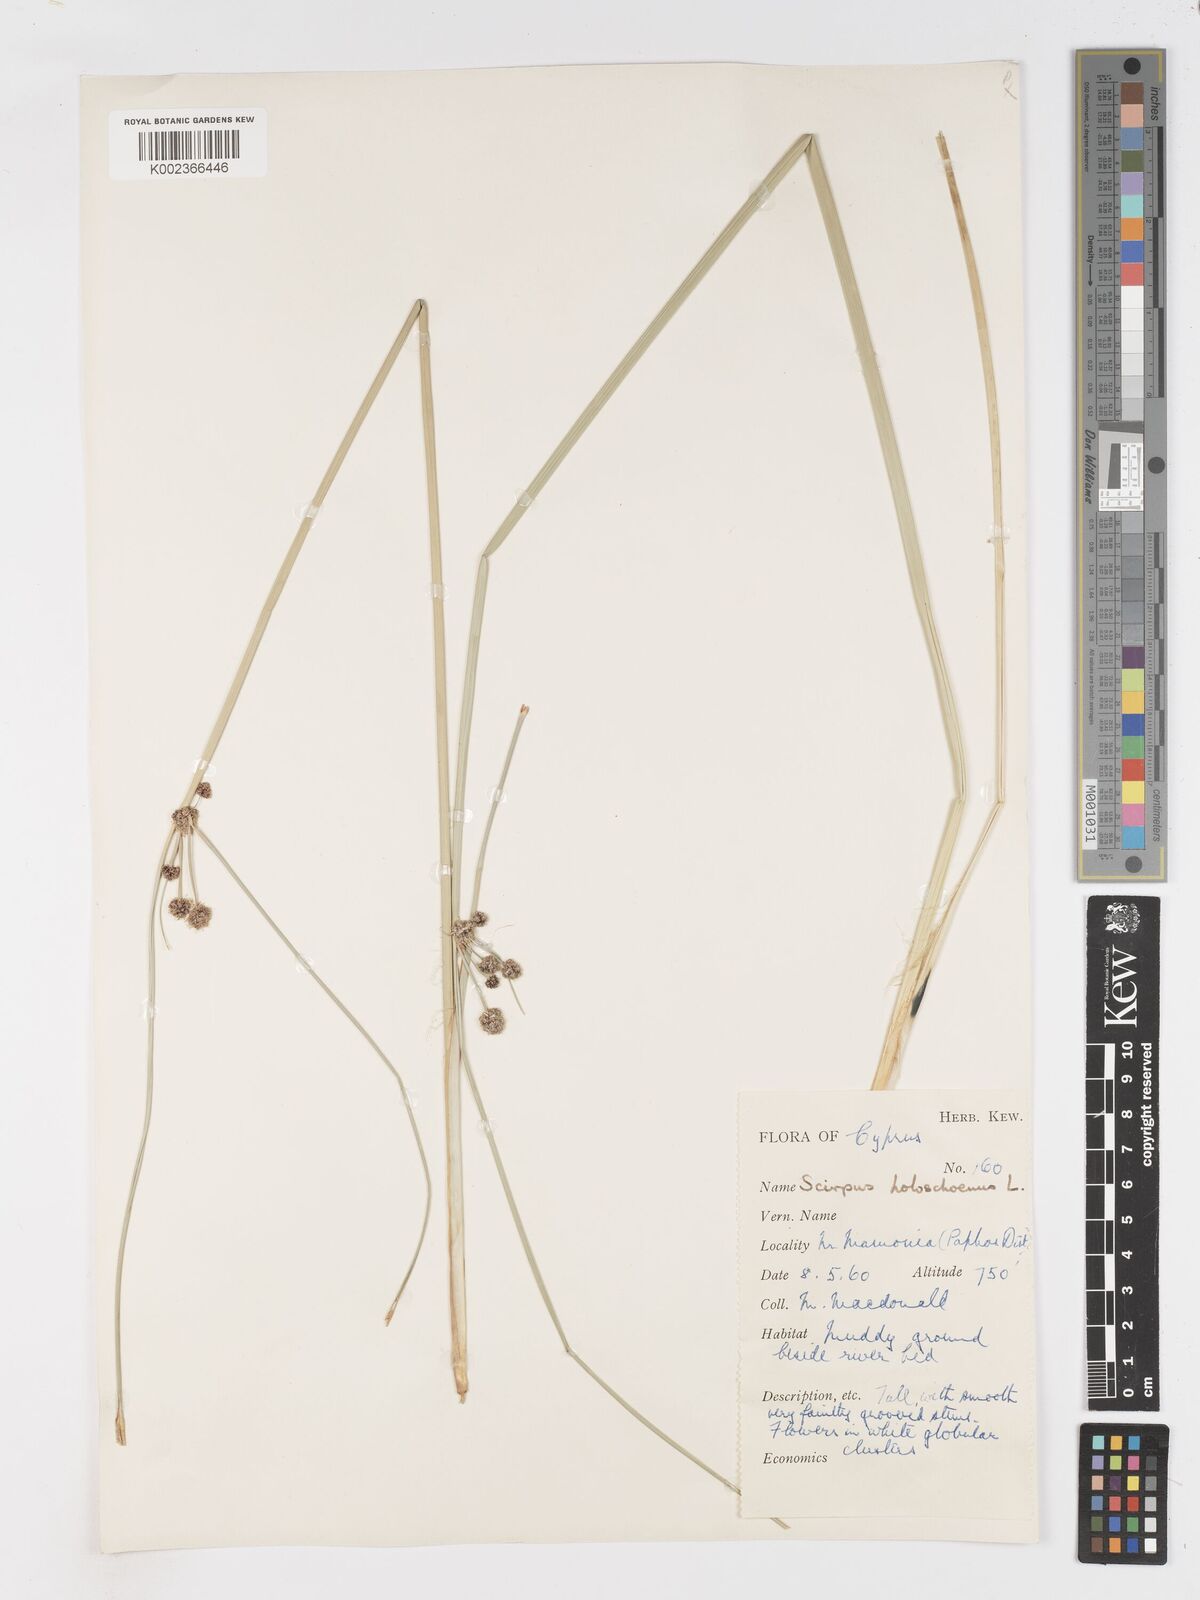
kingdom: Plantae
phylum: Tracheophyta
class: Liliopsida
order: Poales
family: Cyperaceae
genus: Scirpoides
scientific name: Scirpoides holoschoenus
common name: Round-headed club-rush
